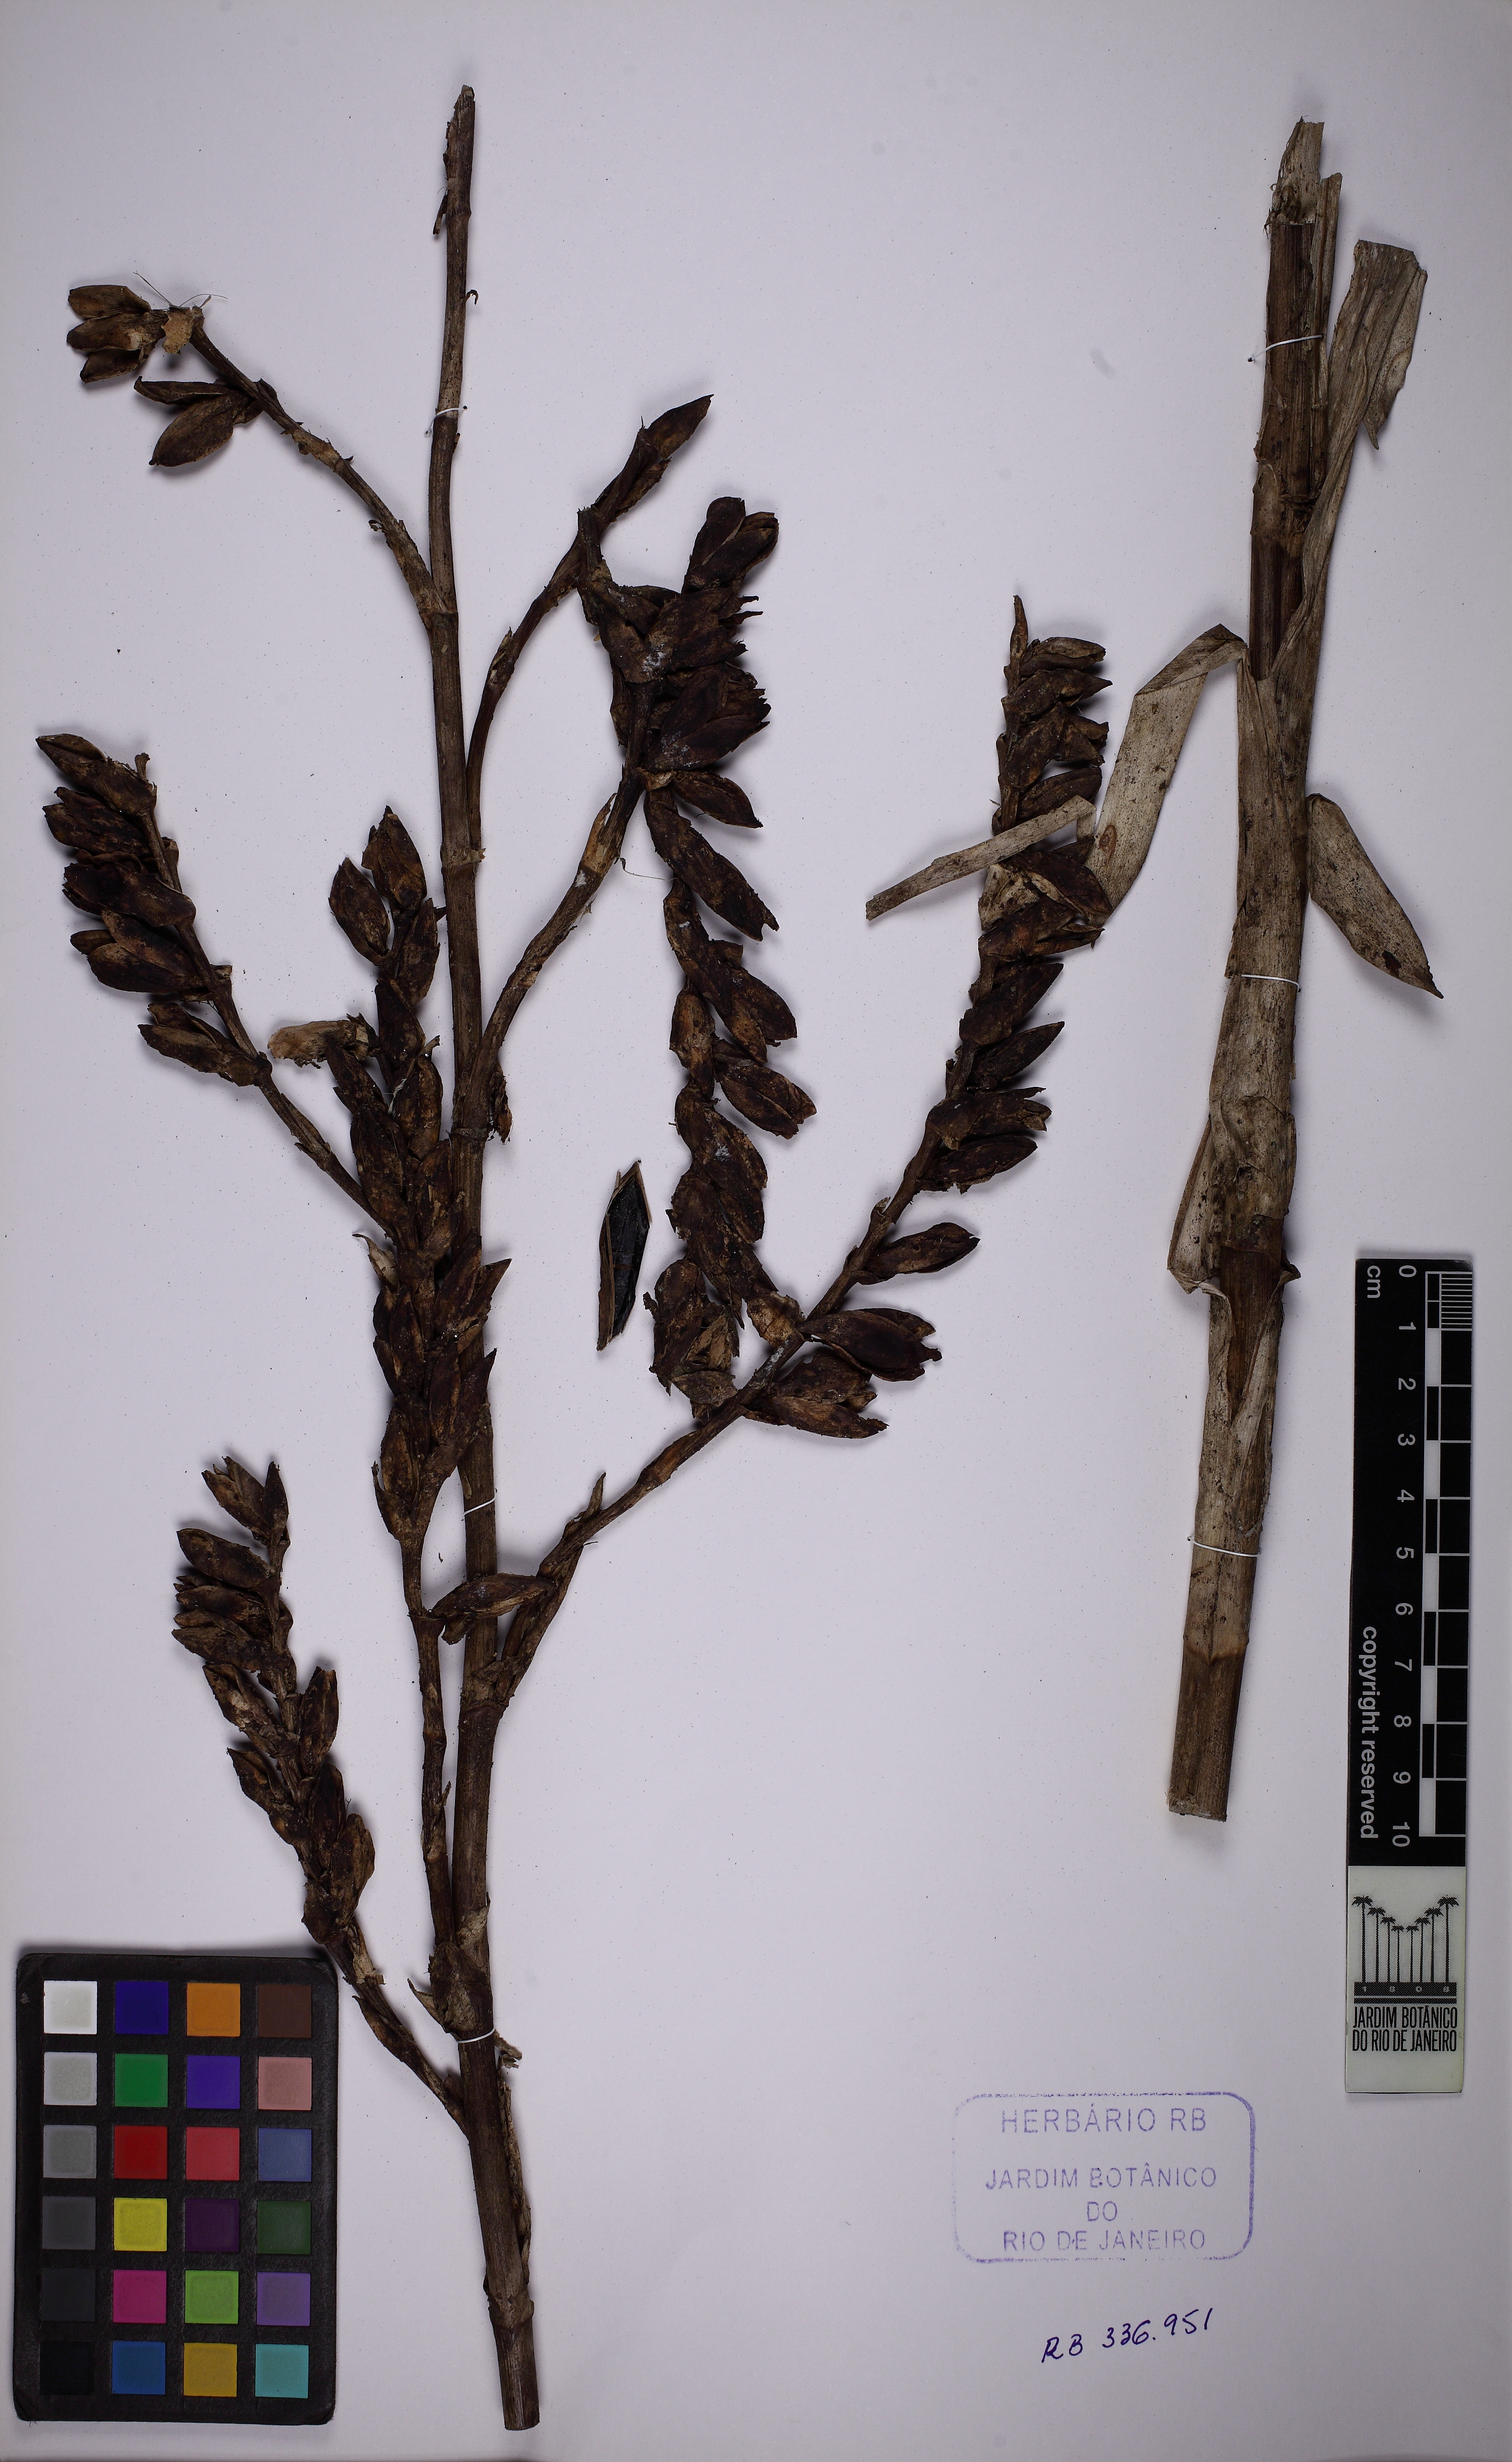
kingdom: Plantae
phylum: Tracheophyta
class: Liliopsida
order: Poales
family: Bromeliaceae
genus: Vriesea
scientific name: Vriesea ruschii
